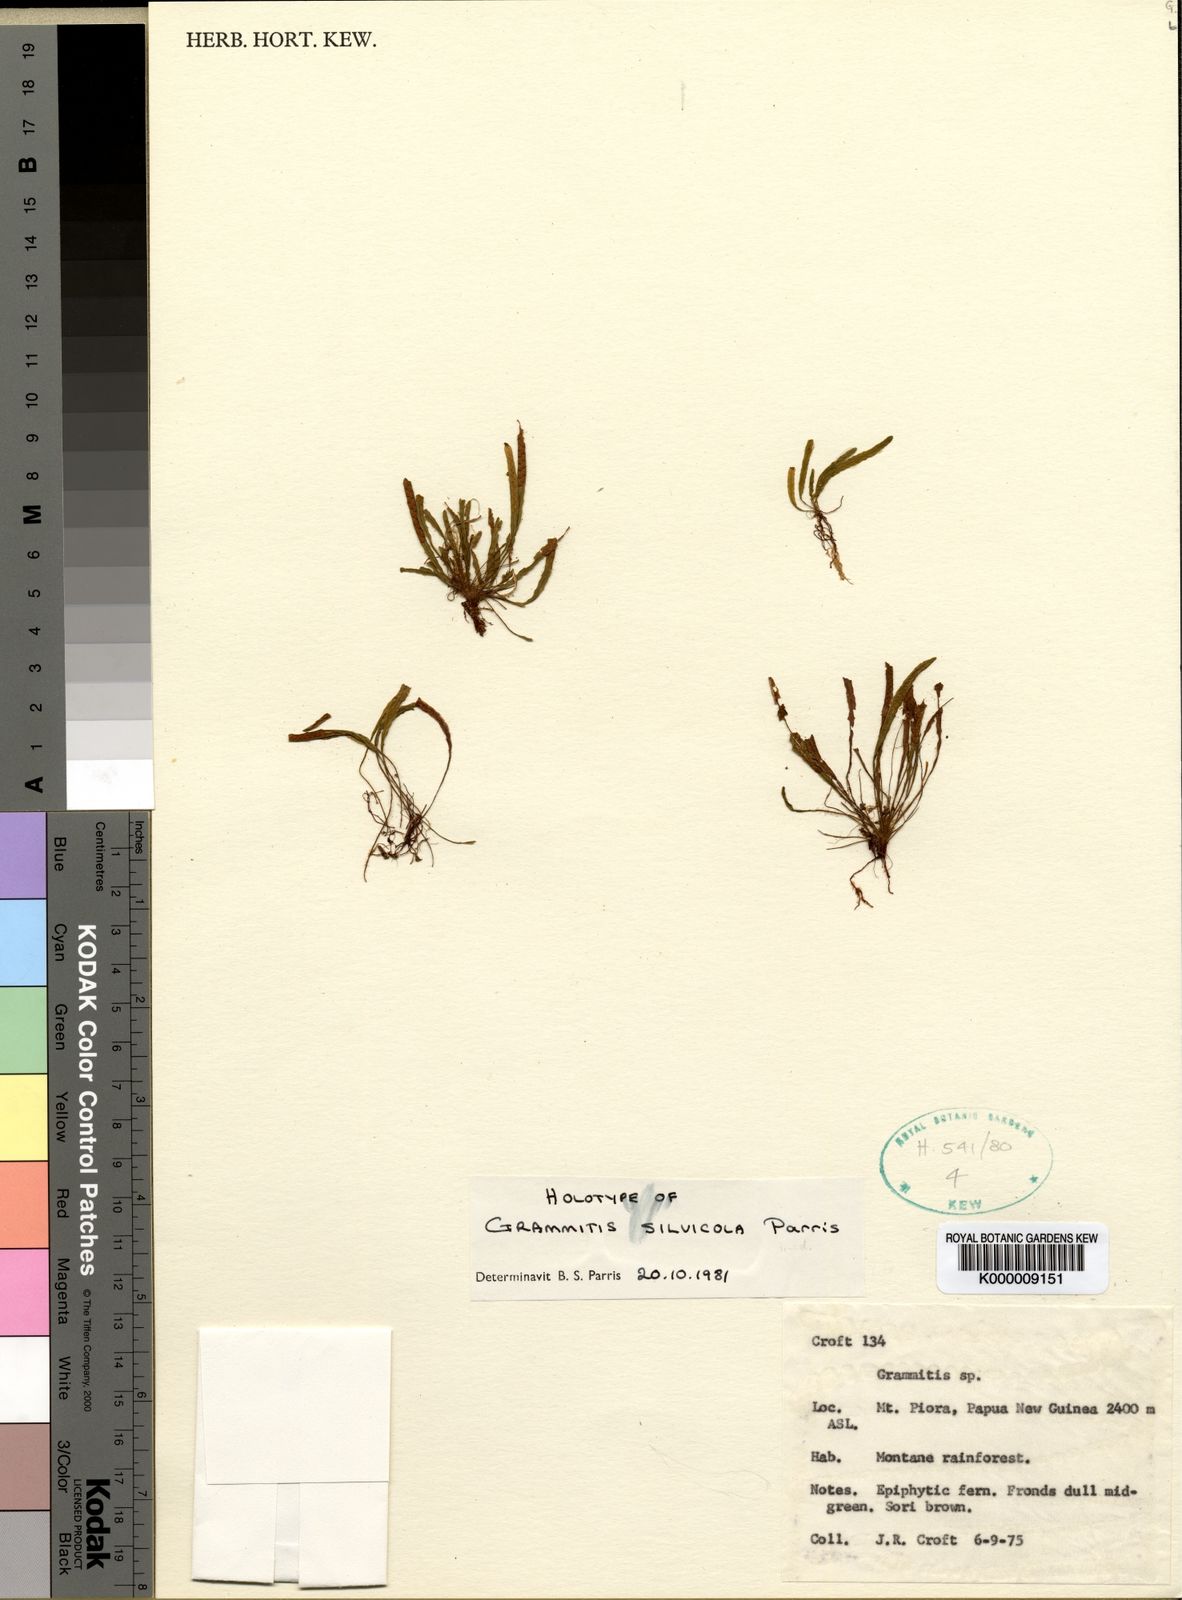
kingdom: Plantae
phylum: Tracheophyta
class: Polypodiopsida
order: Polypodiales
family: Polypodiaceae
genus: Oreogrammitis
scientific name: Oreogrammitis silvicola
